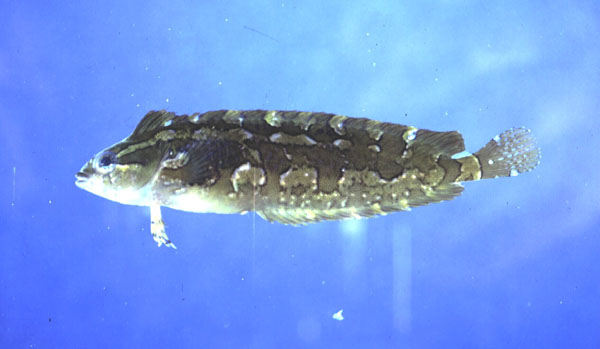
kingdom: Animalia
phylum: Chordata
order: Perciformes
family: Clinidae
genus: Pavoclinus
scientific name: Pavoclinus graminis
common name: Grass klipfish
